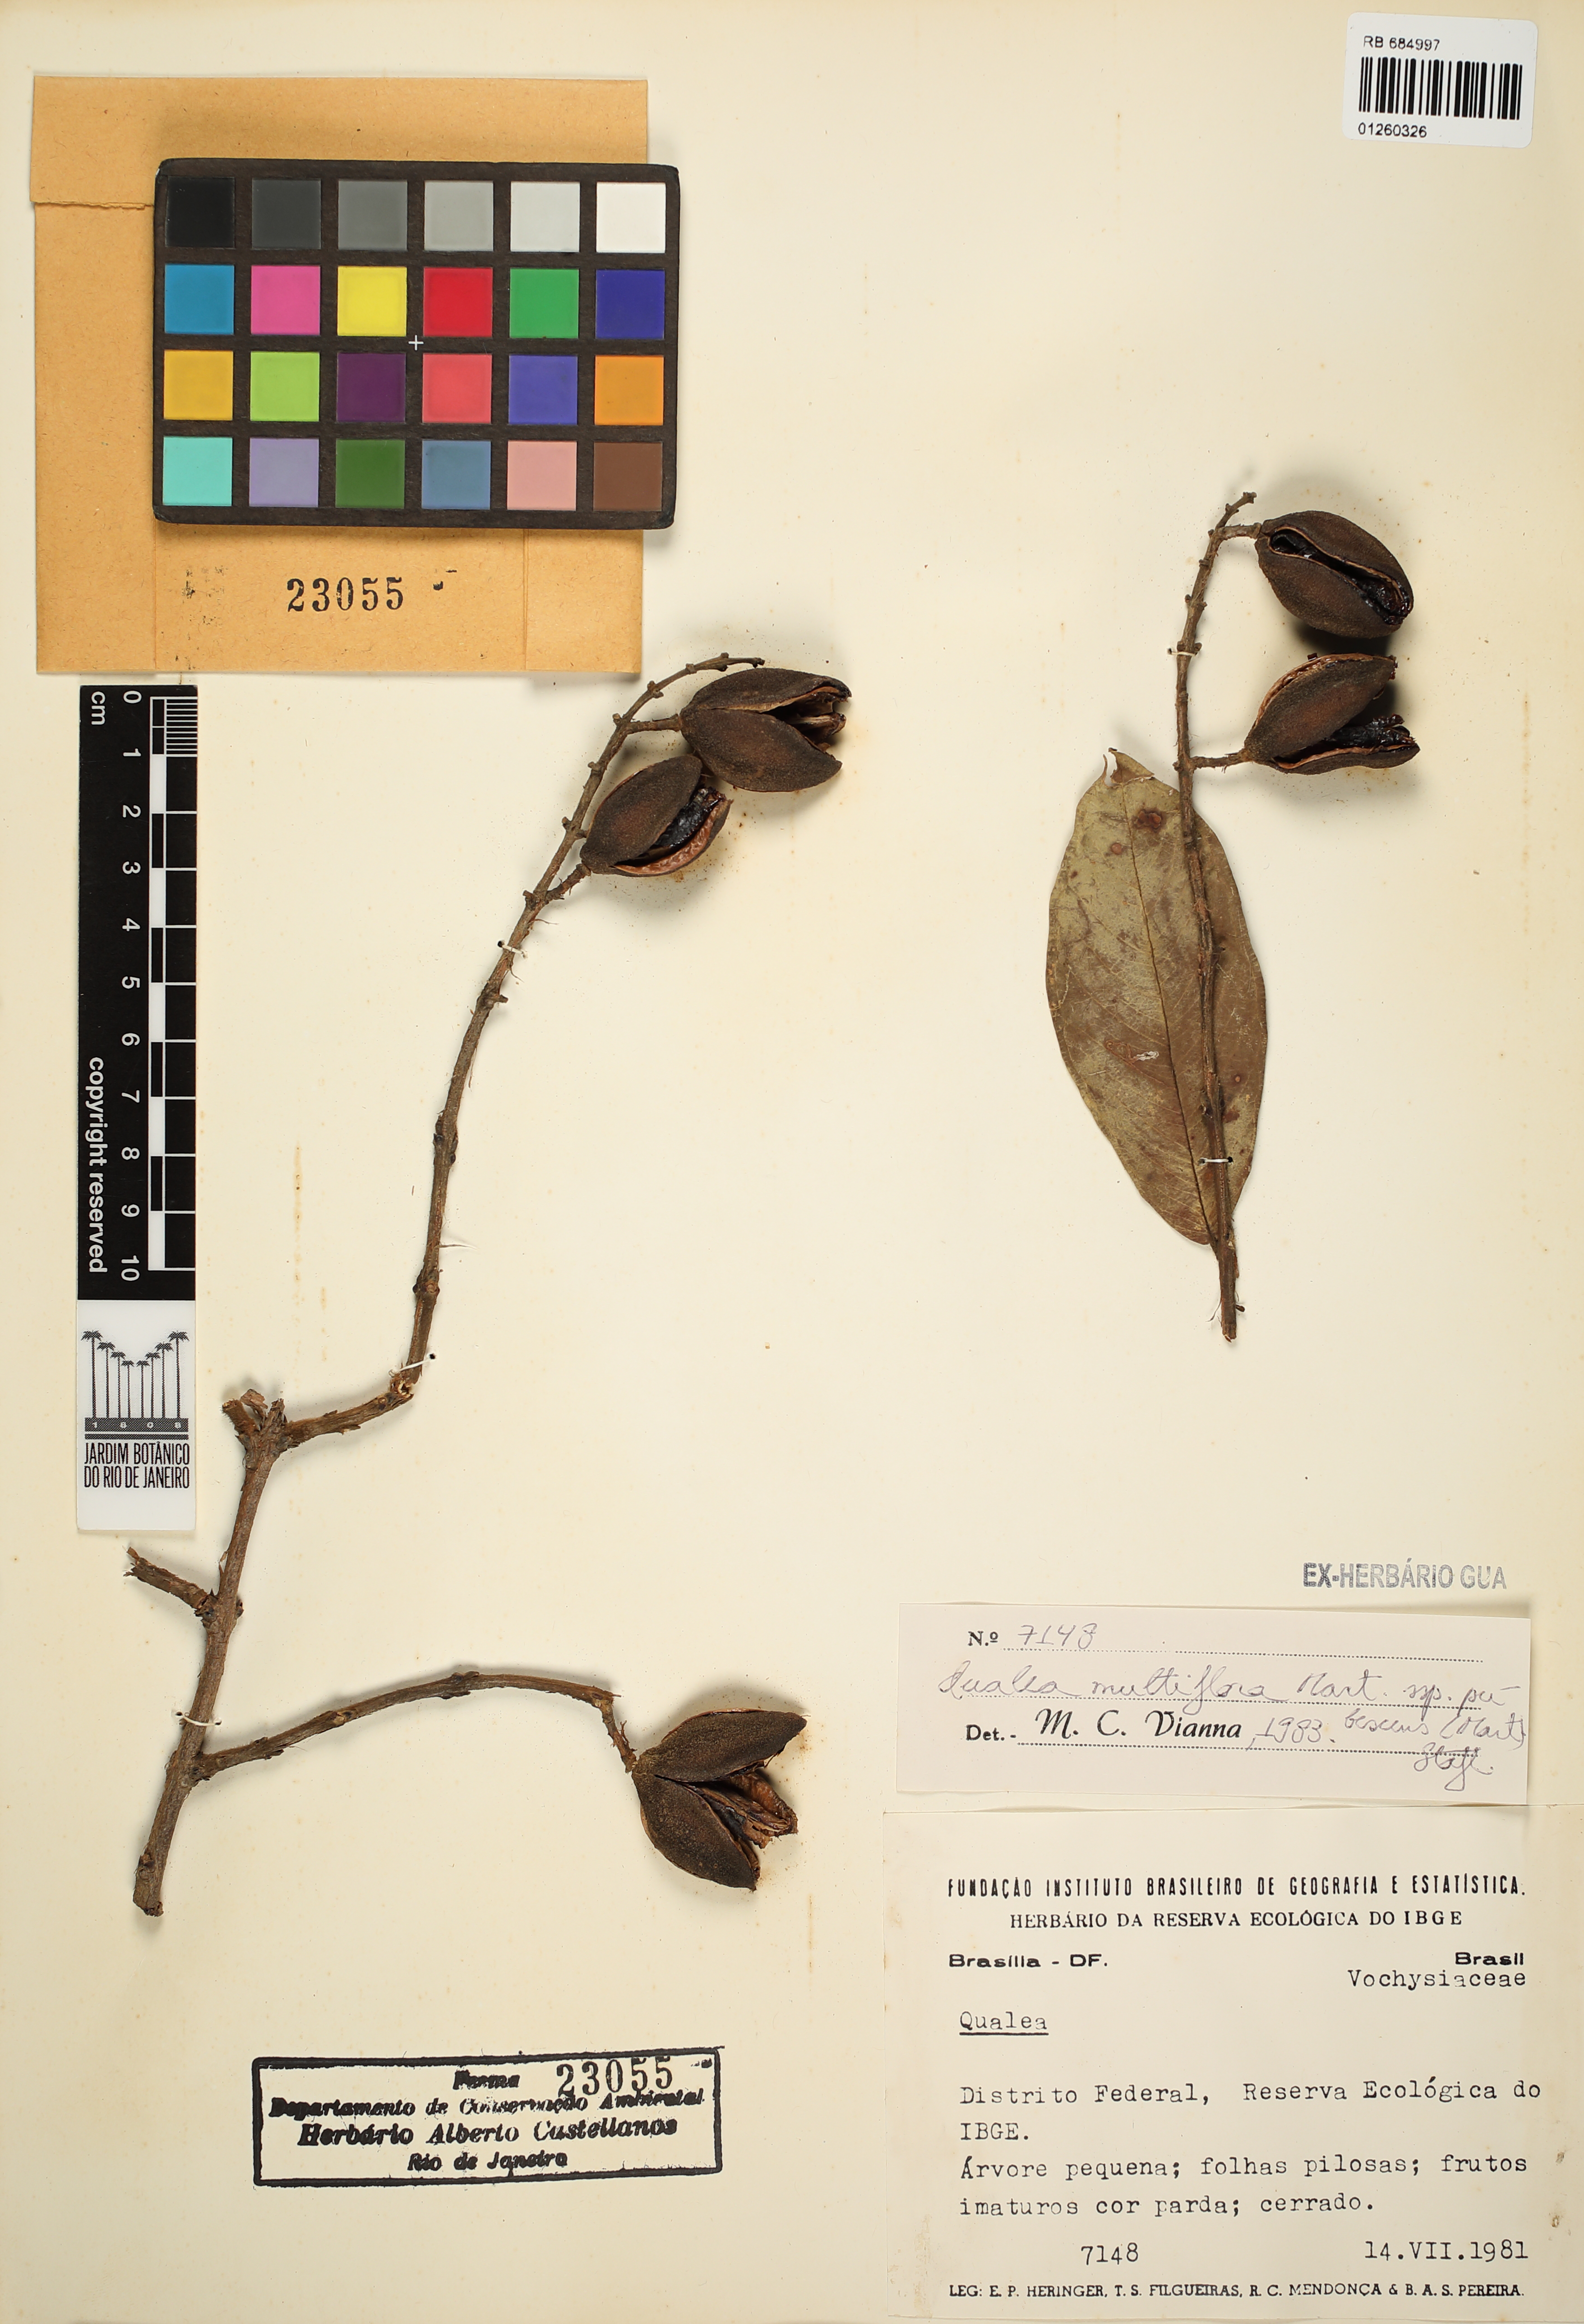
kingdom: Plantae
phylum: Tracheophyta
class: Magnoliopsida
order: Myrtales
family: Vochysiaceae
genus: Qualea
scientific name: Qualea multiflora
